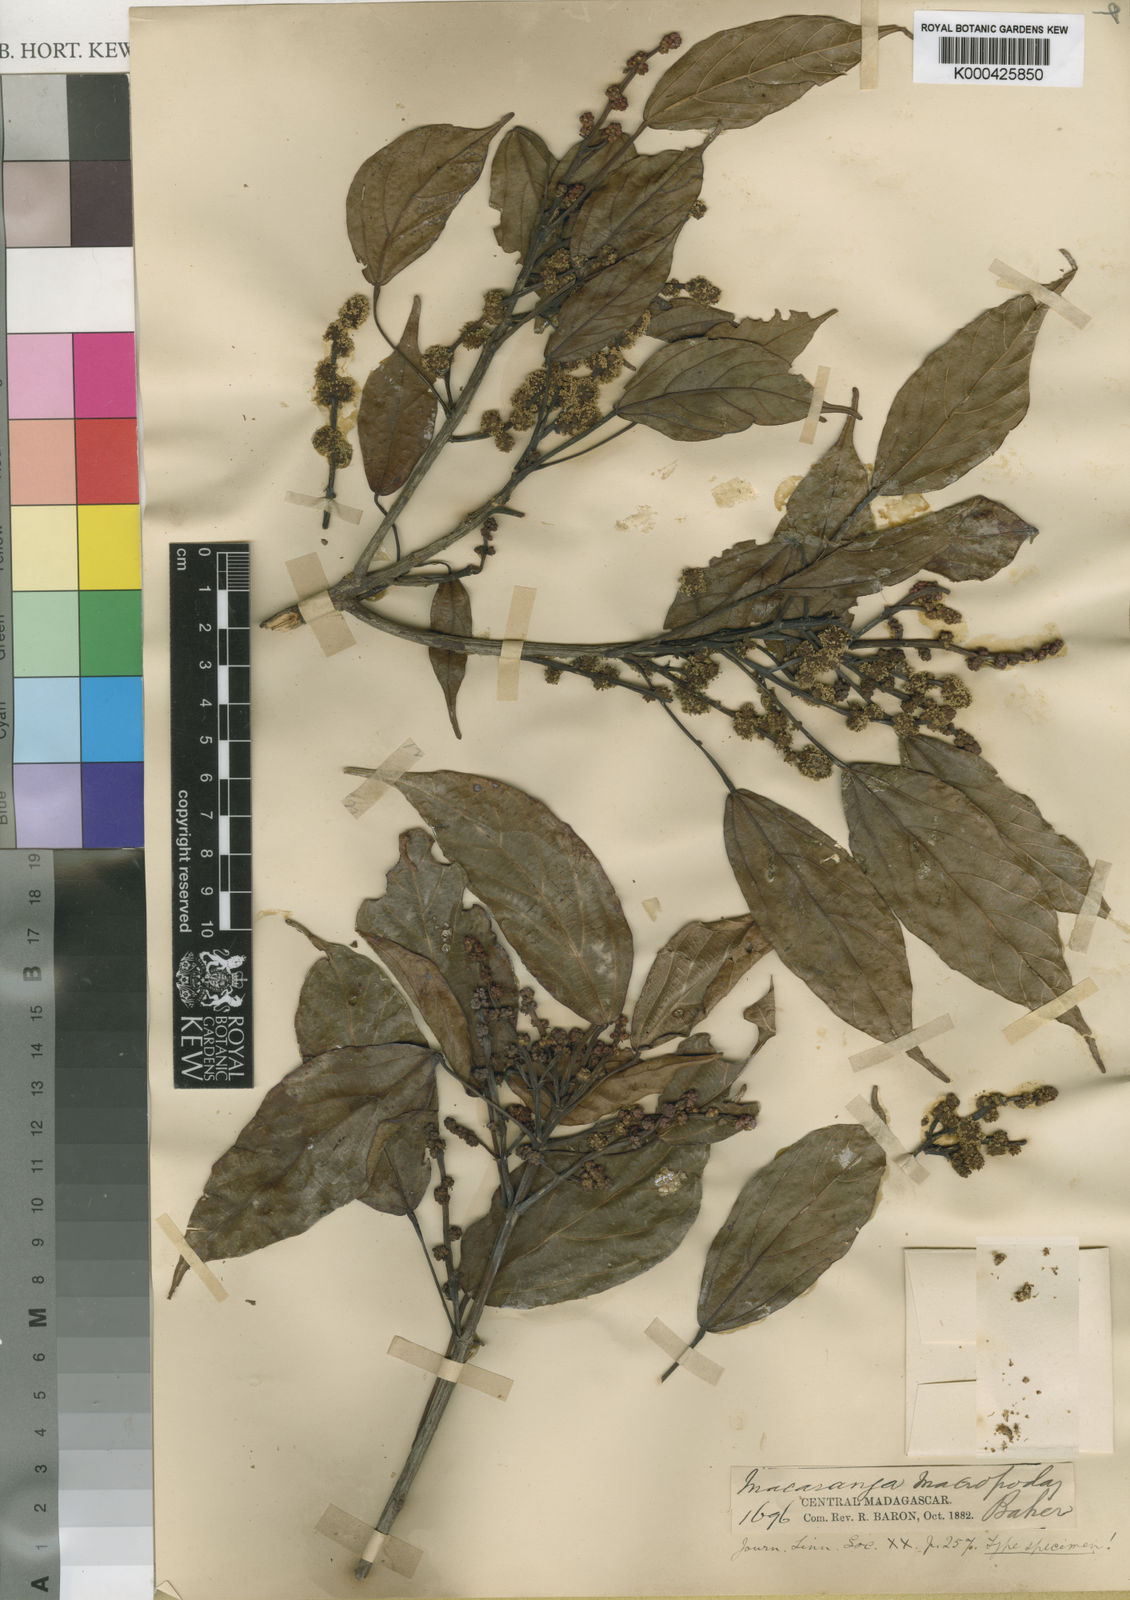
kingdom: Plantae
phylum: Tracheophyta
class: Magnoliopsida
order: Malpighiales
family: Euphorbiaceae
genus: Macaranga
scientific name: Macaranga macropoda
